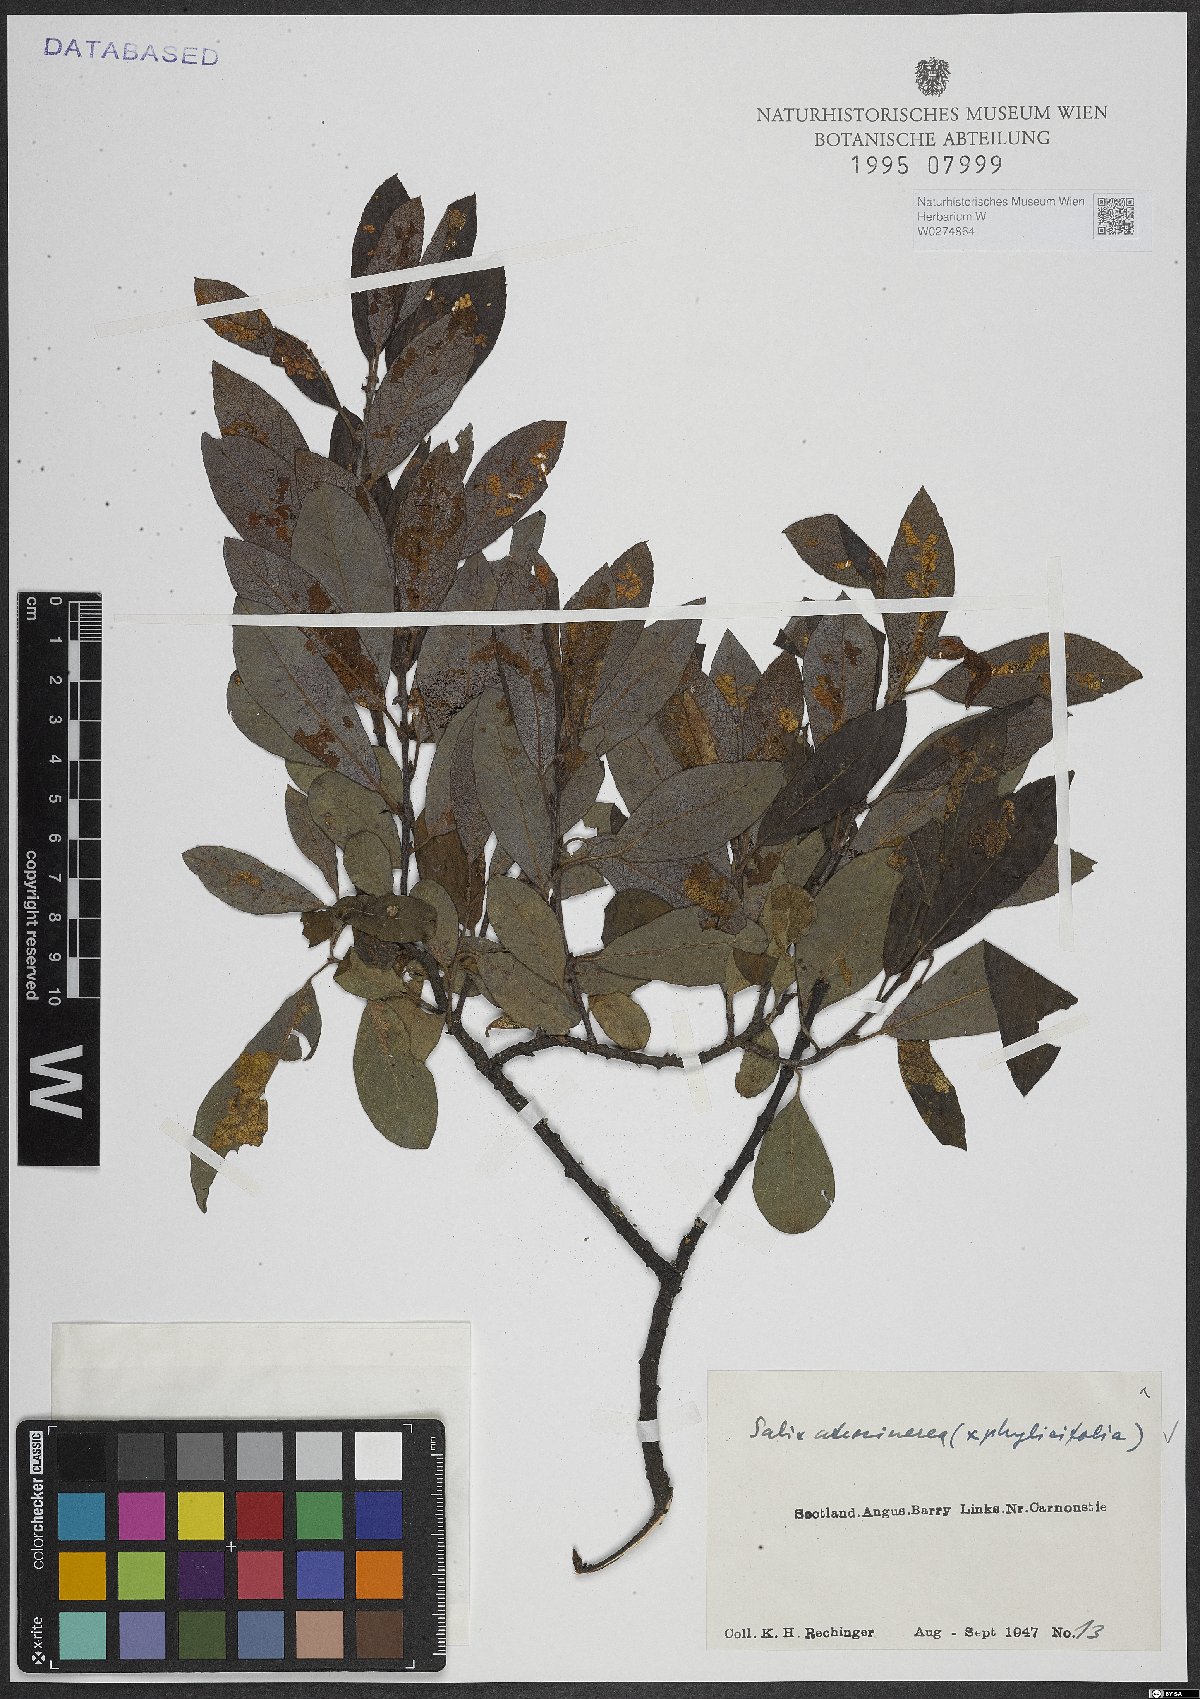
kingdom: Plantae
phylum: Tracheophyta
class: Magnoliopsida
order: Malpighiales
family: Salicaceae
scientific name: Salicaceae
